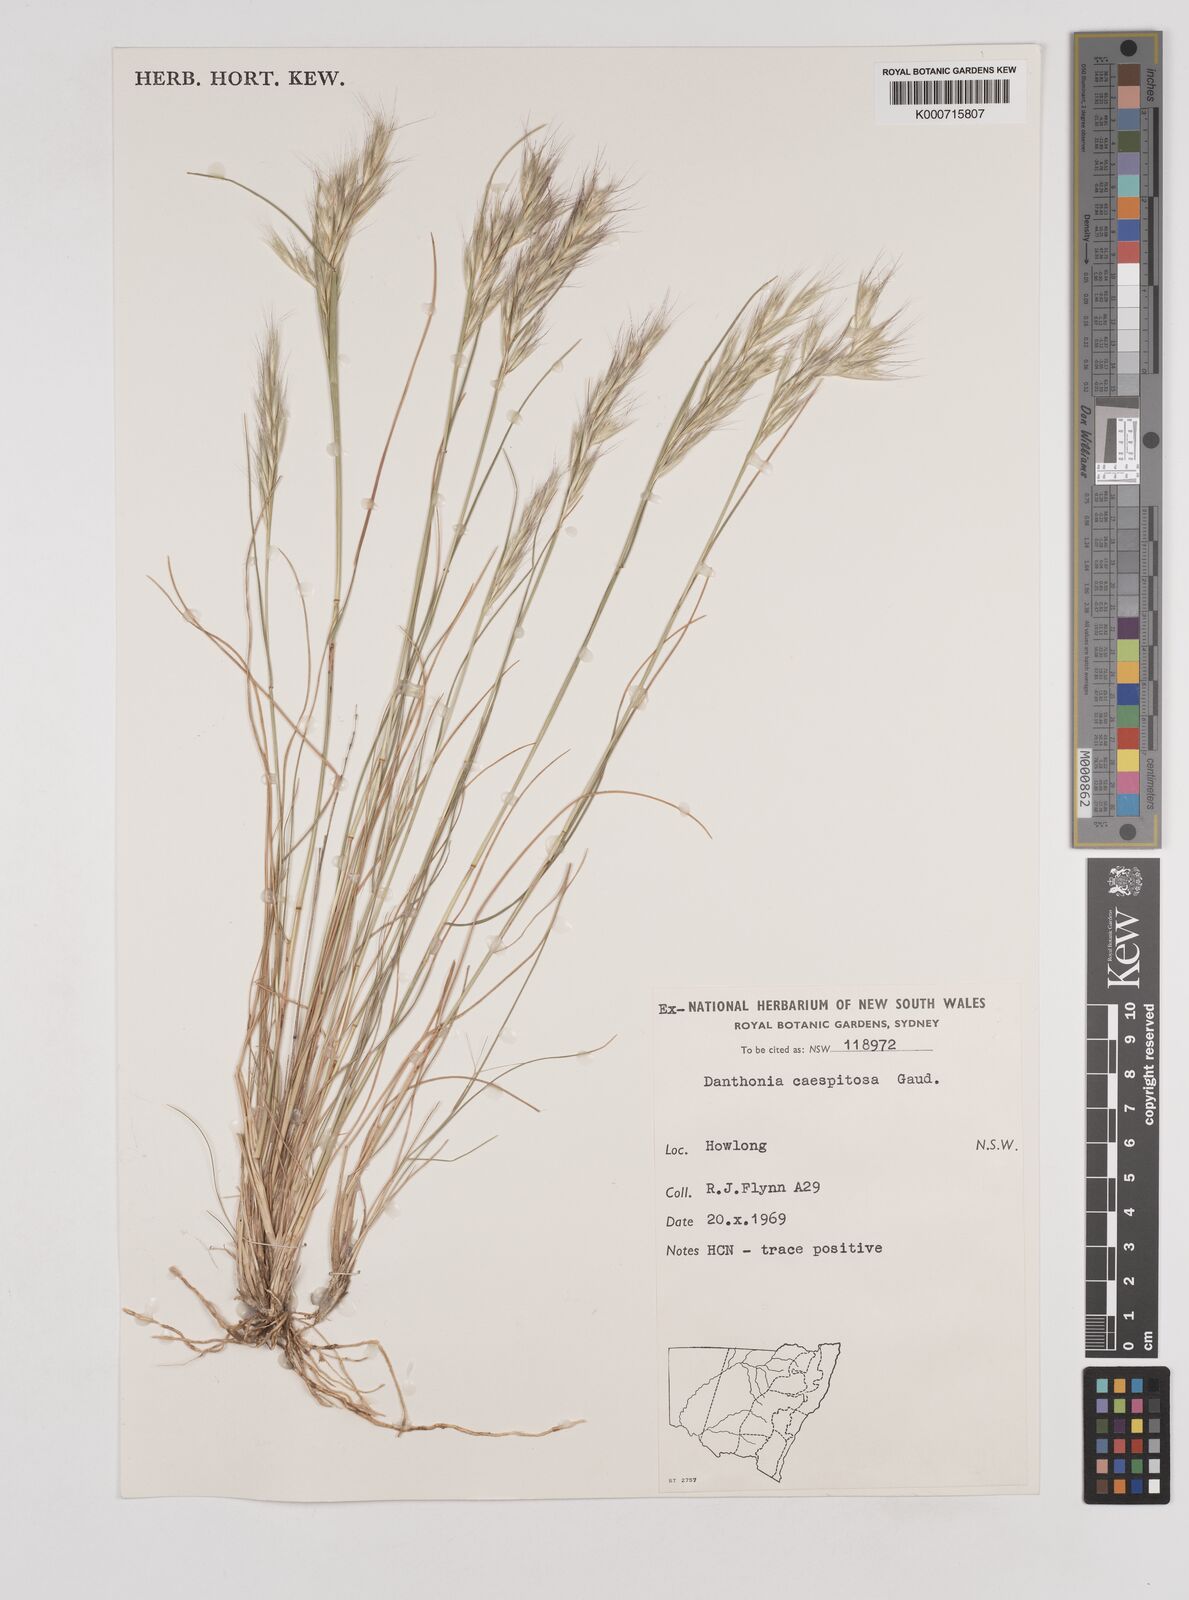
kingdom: Plantae
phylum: Tracheophyta
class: Liliopsida
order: Poales
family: Poaceae
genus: Rytidosperma
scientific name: Rytidosperma caespitosum
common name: Tufted wallaby grass
